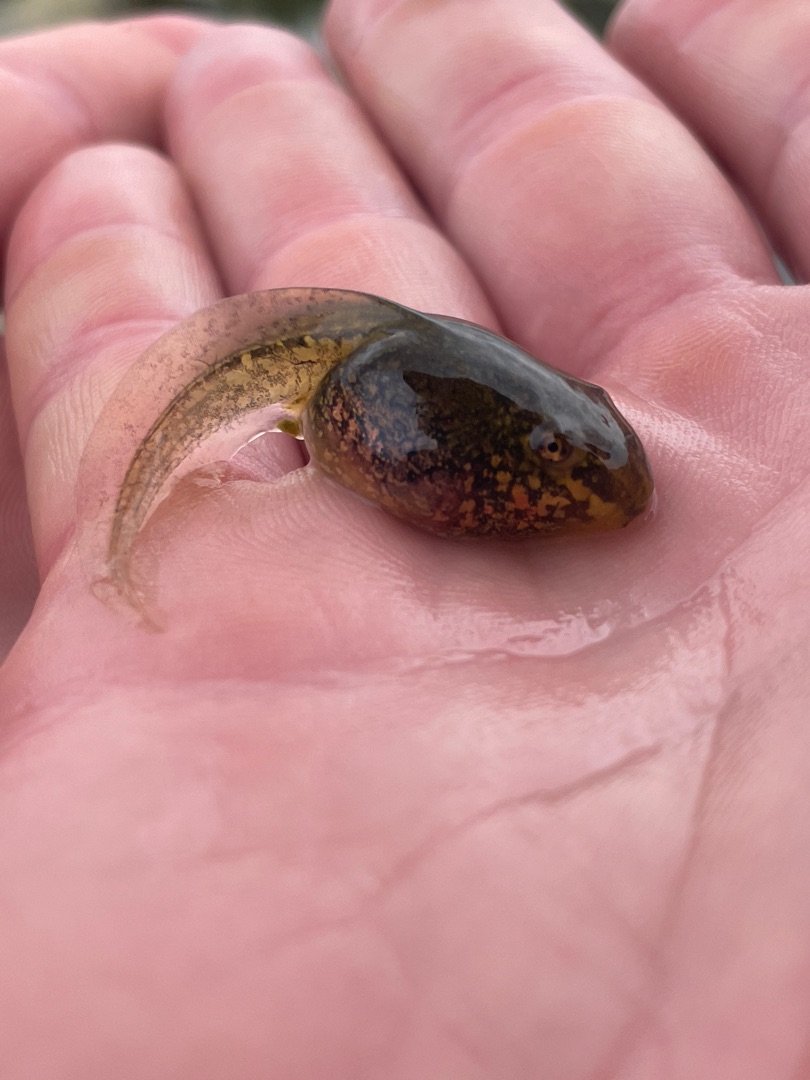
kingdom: Animalia
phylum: Chordata
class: Amphibia
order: Anura
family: Ranidae
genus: Pelophylax
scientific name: Pelophylax
